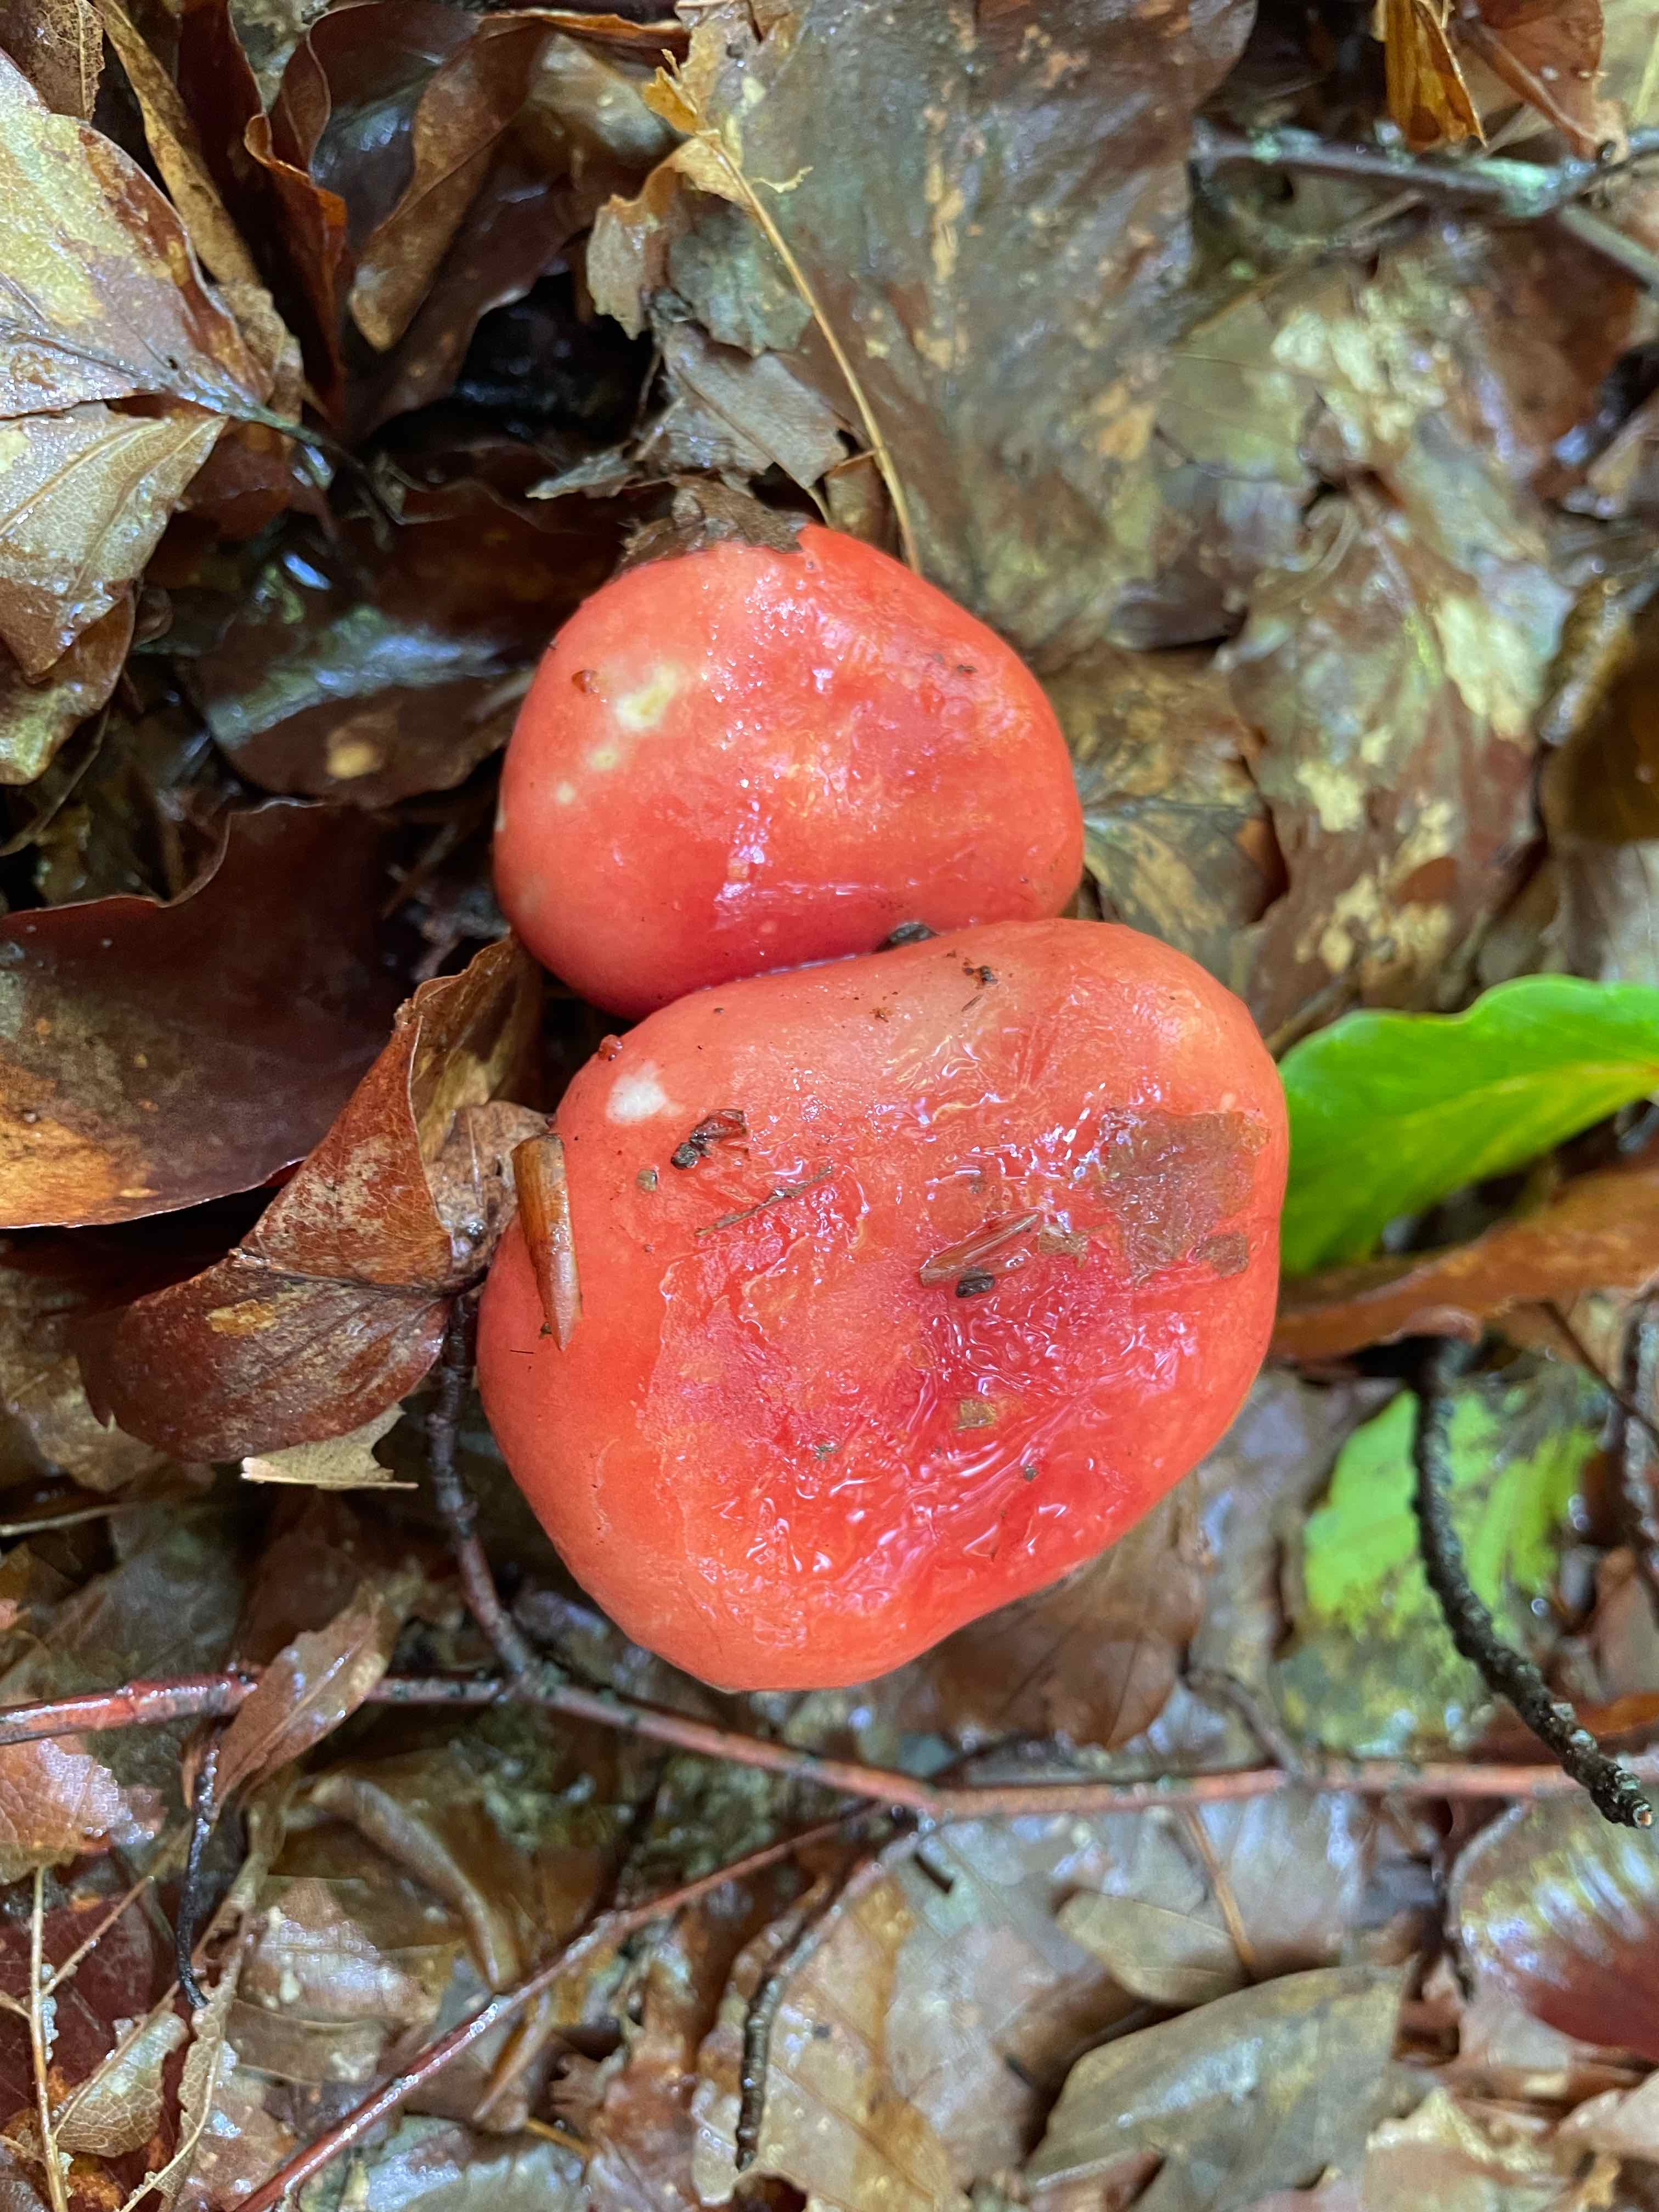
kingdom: Fungi
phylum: Basidiomycota
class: Agaricomycetes
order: Russulales
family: Russulaceae
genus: Russula
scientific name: Russula
